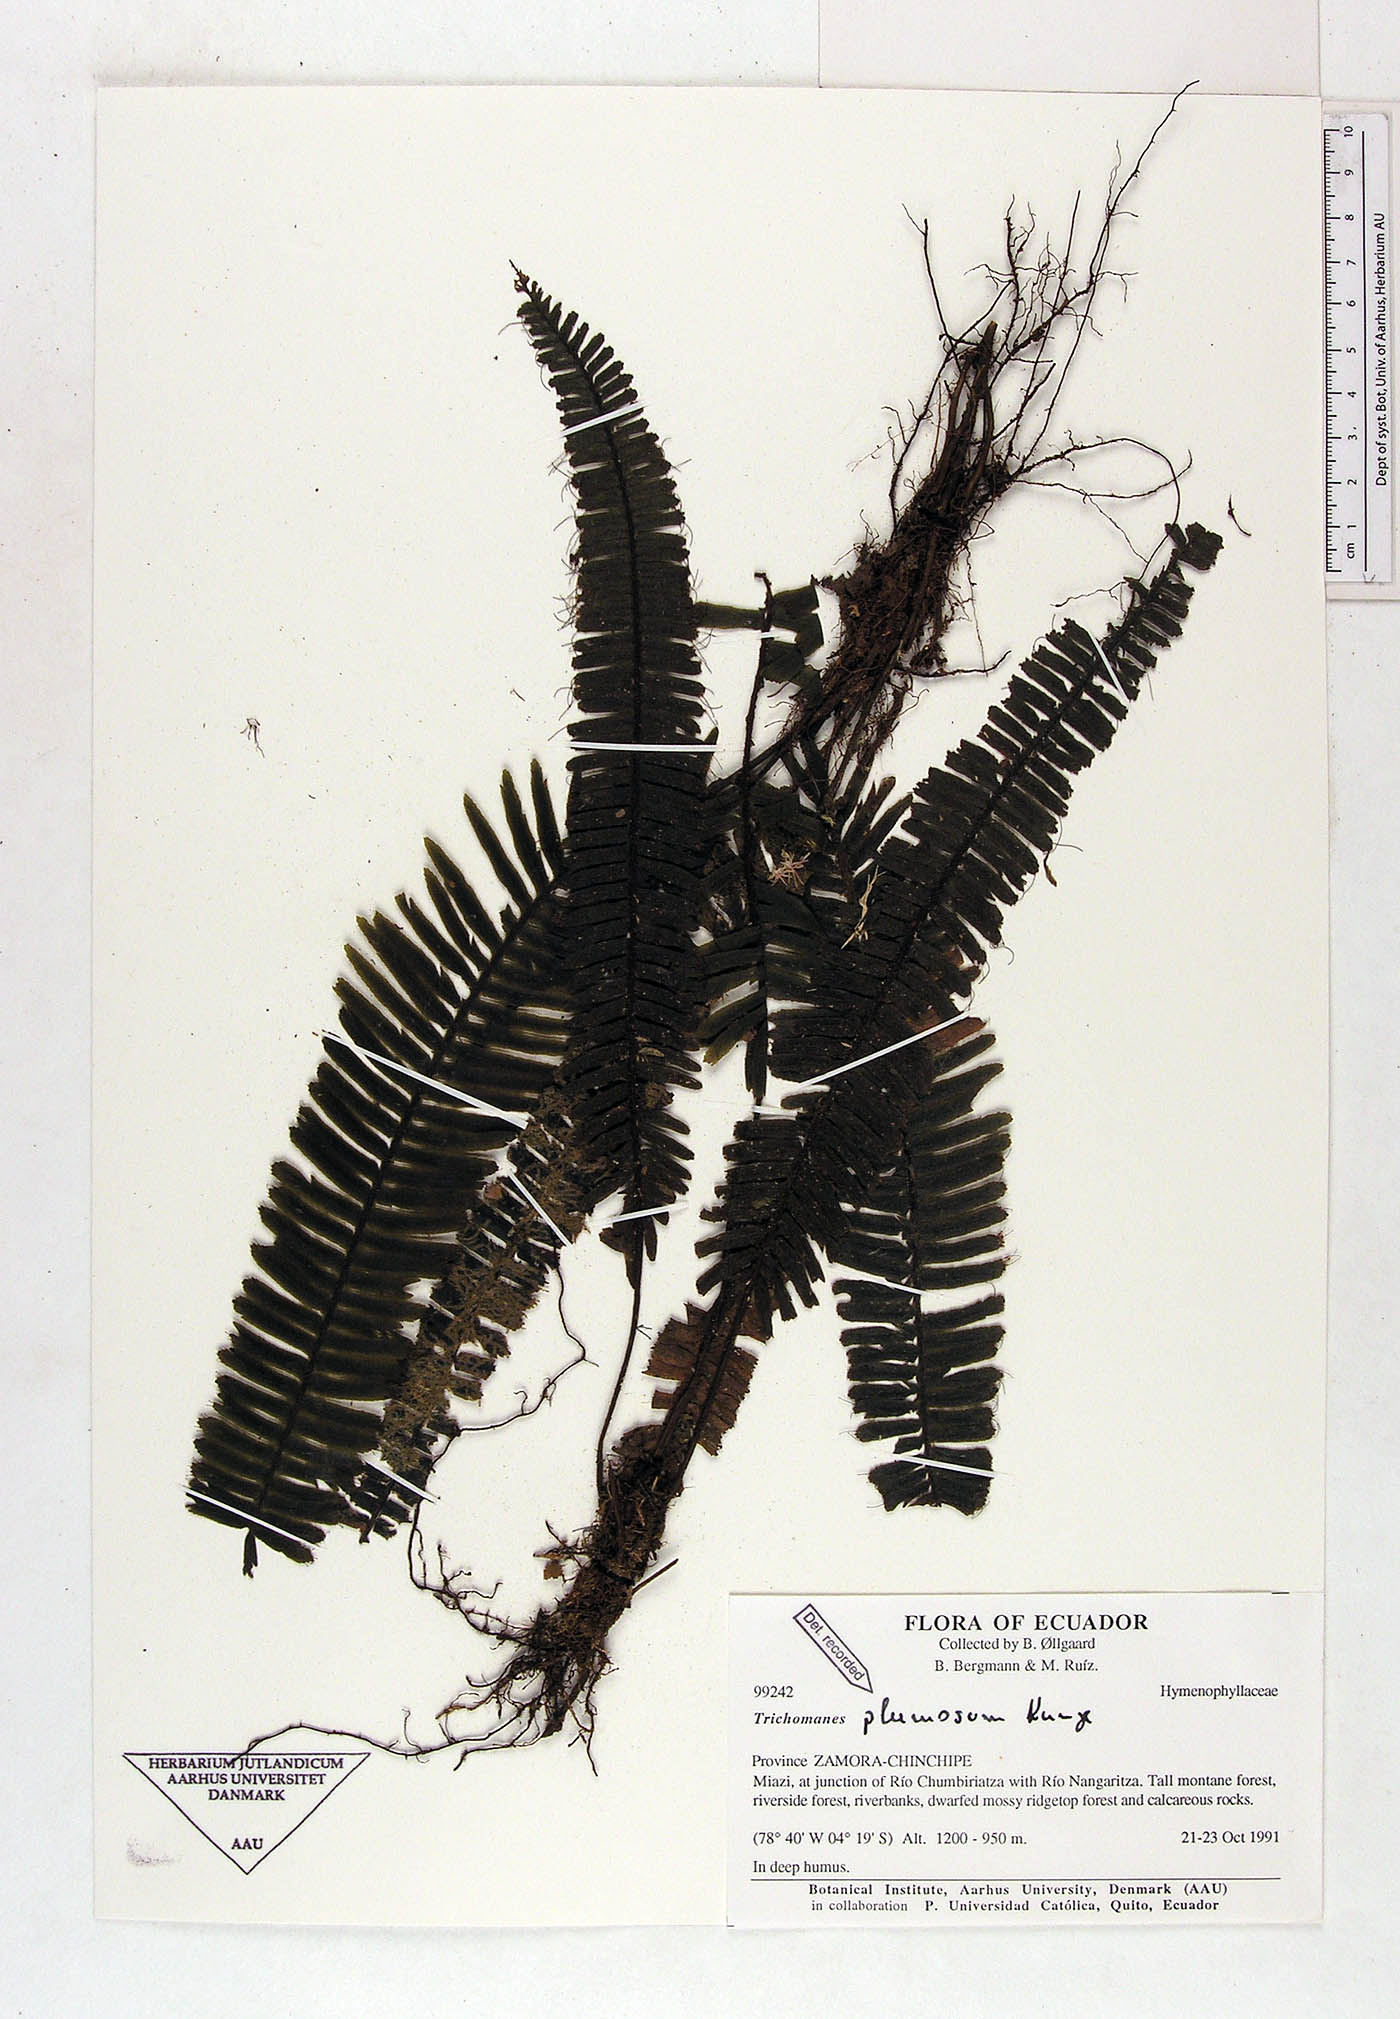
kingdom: Plantae
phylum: Tracheophyta
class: Polypodiopsida
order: Hymenophyllales
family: Hymenophyllaceae
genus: Trichomanes
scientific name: Trichomanes plumosum
